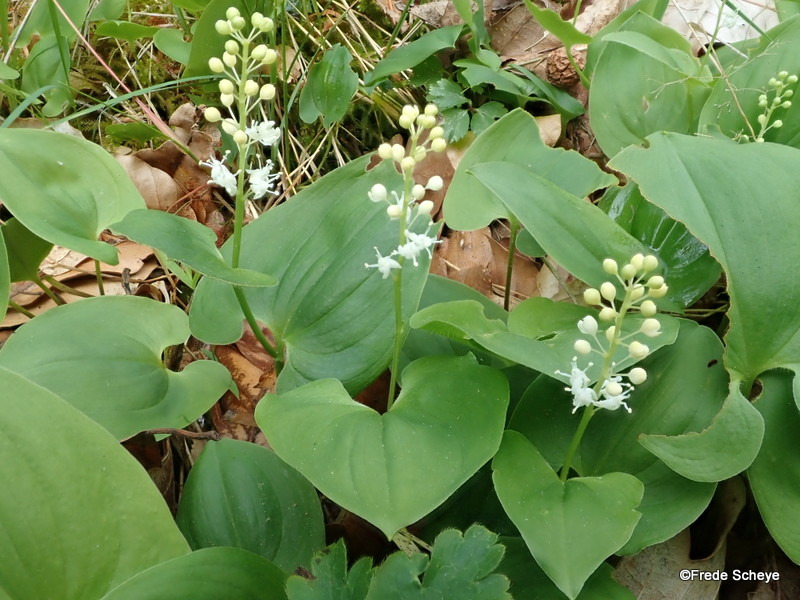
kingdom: Plantae
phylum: Tracheophyta
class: Liliopsida
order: Asparagales
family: Asparagaceae
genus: Maianthemum
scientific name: Maianthemum bifolium
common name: Majblomst
